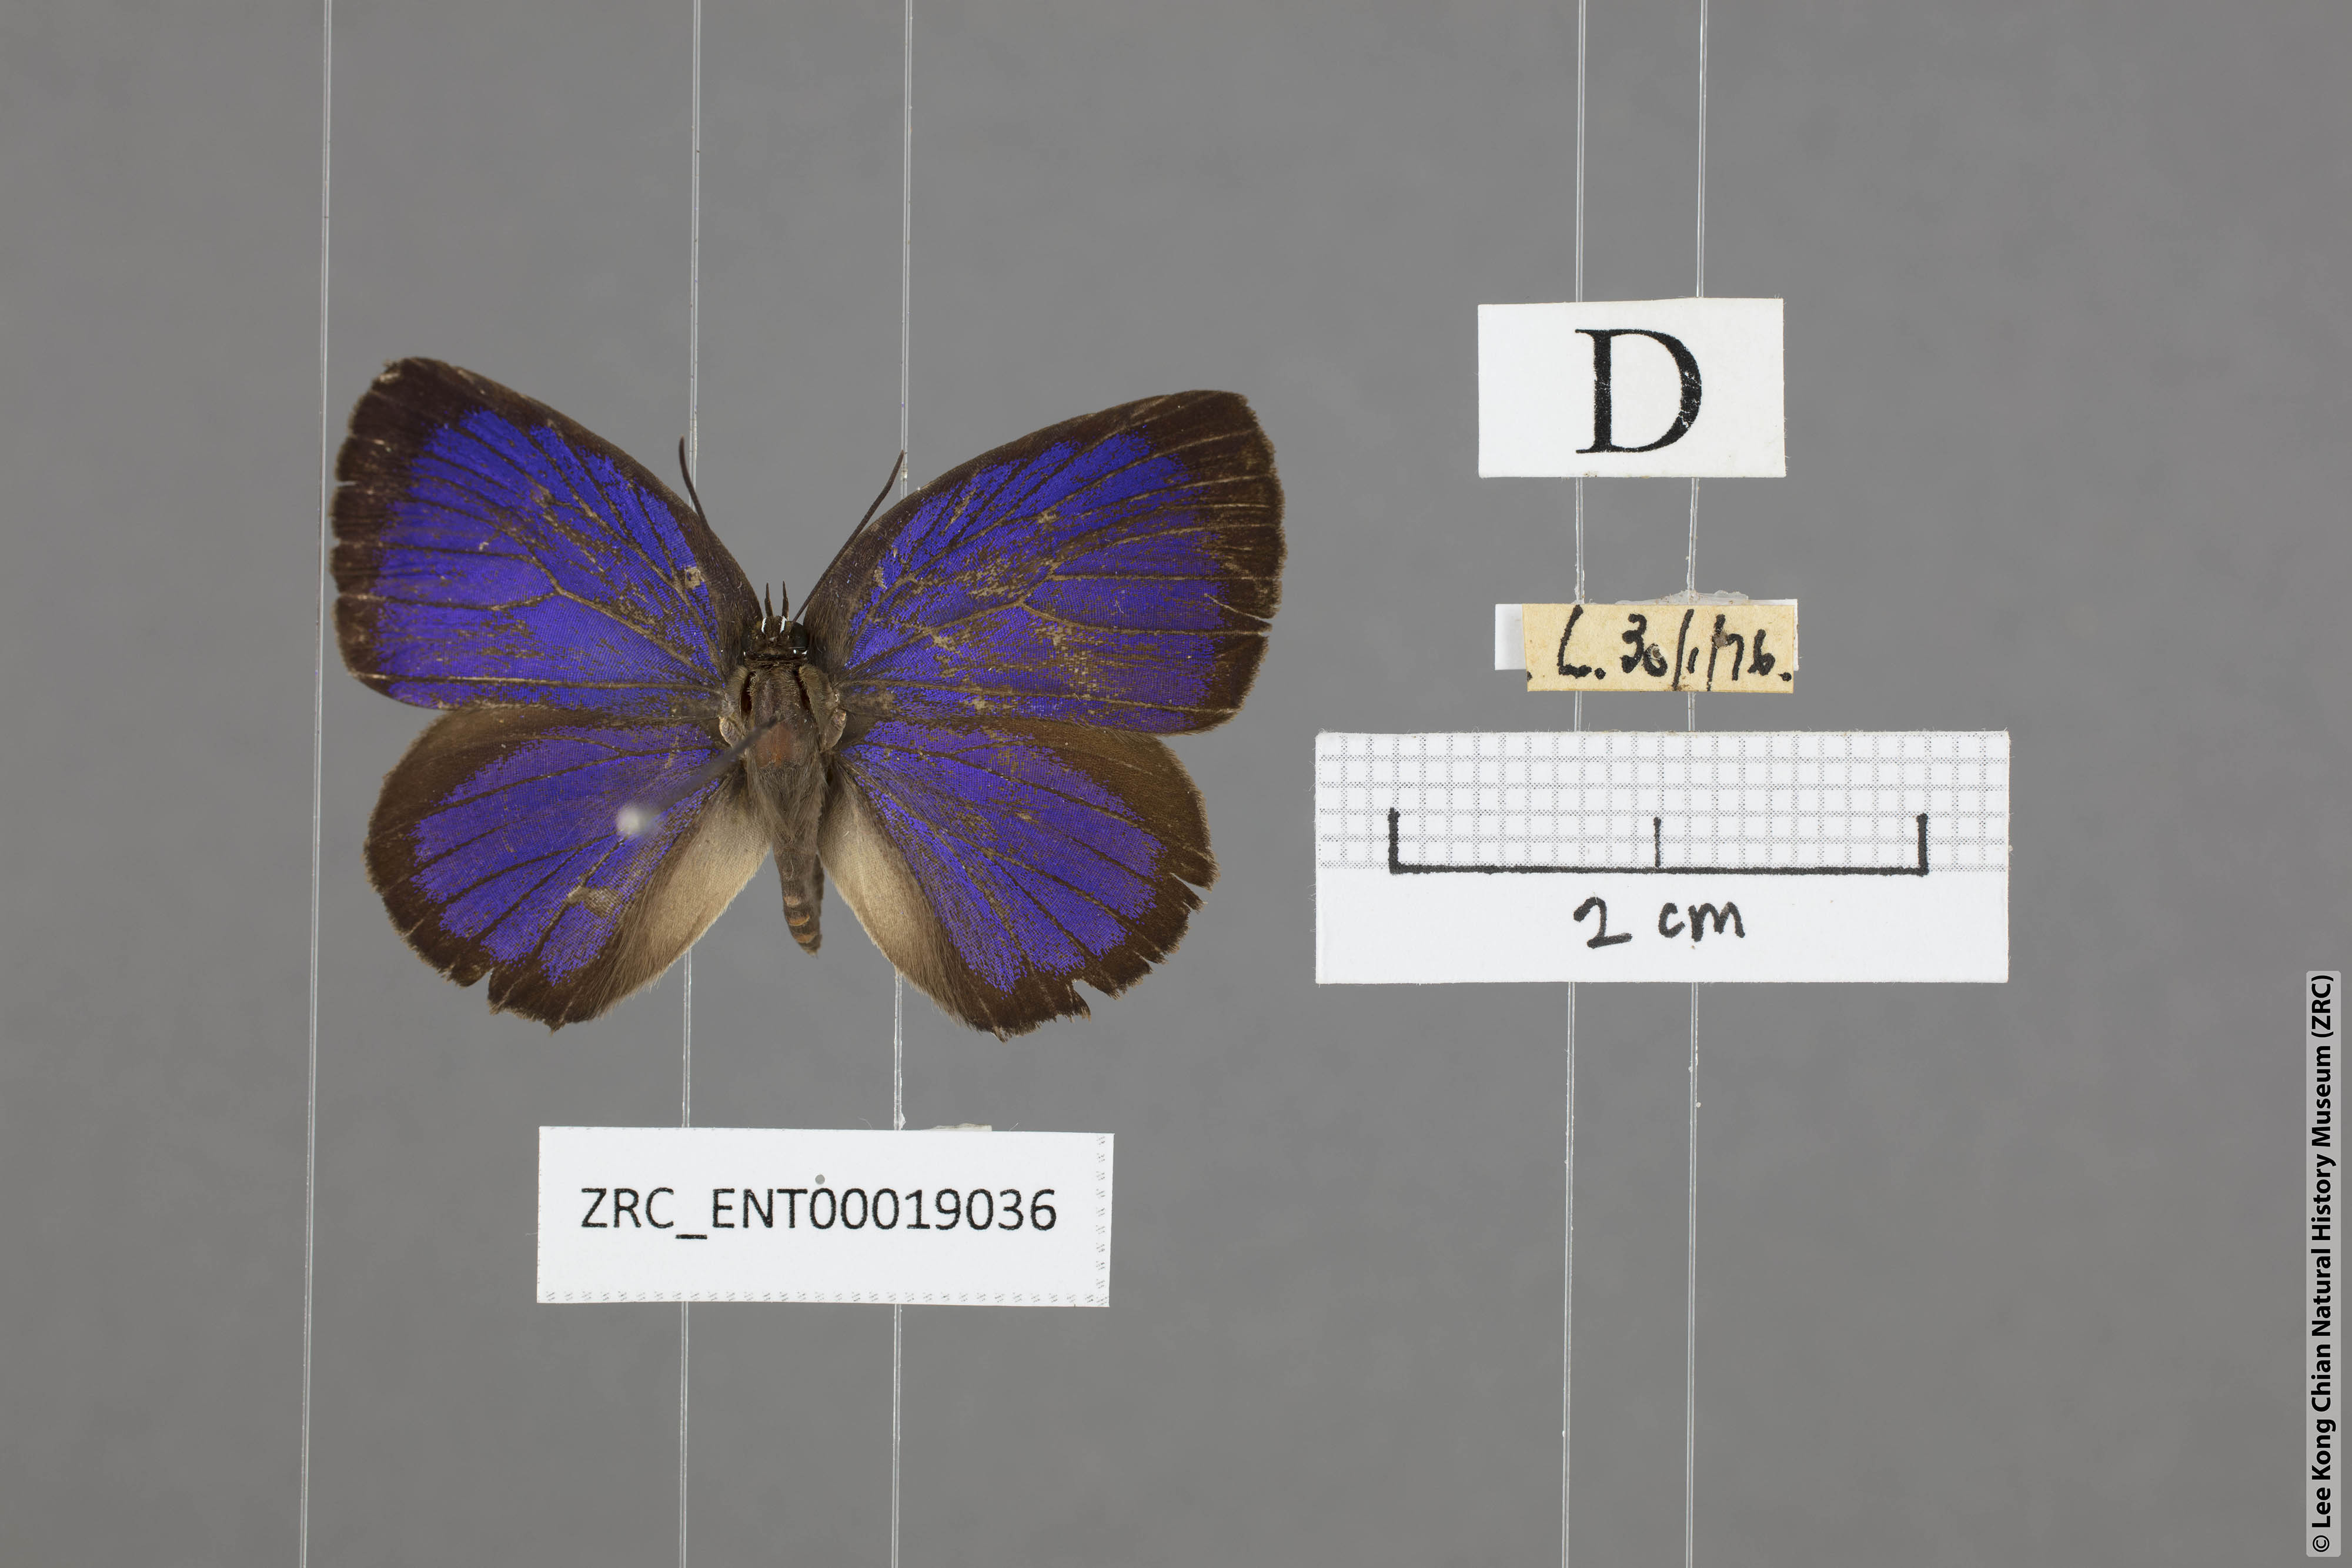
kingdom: Animalia
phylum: Arthropoda
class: Insecta
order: Lepidoptera
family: Lycaenidae
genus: Arhopala
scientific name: Arhopala agesilaus
